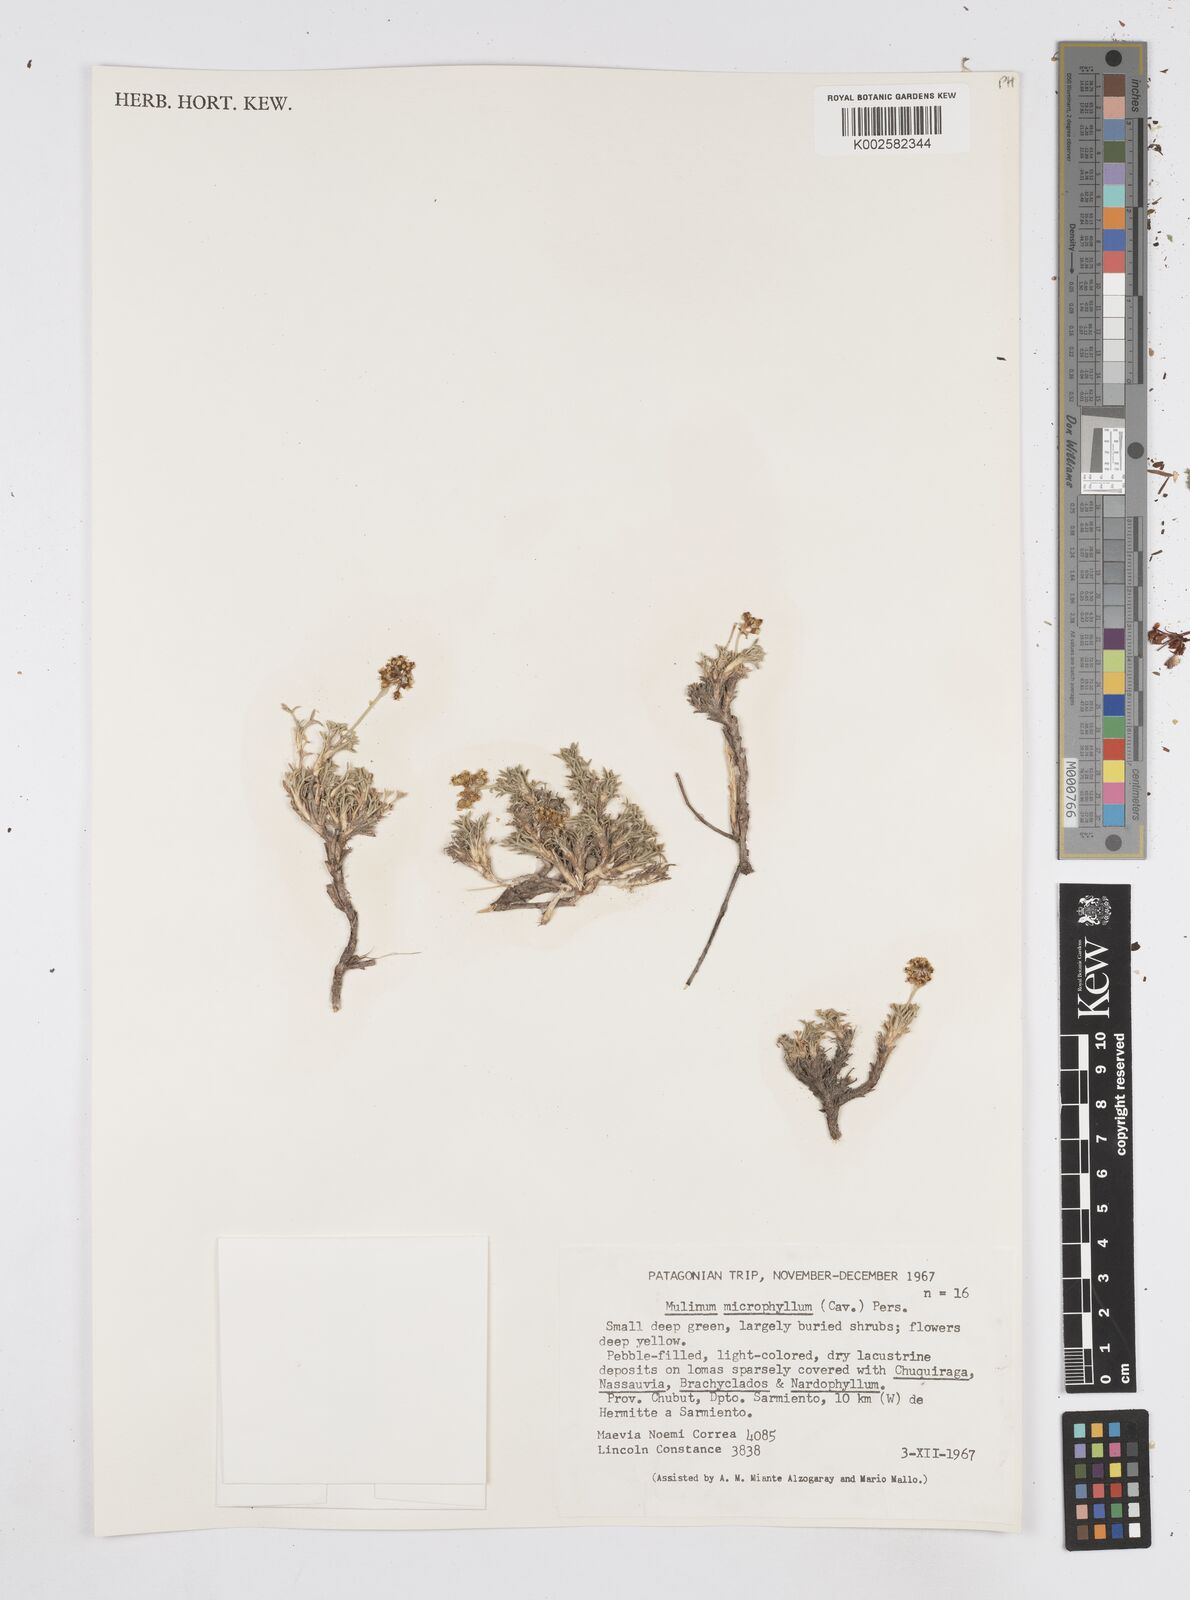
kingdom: Plantae
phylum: Tracheophyta
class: Magnoliopsida
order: Apiales
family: Apiaceae
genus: Azorella
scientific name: Azorella microphylla
